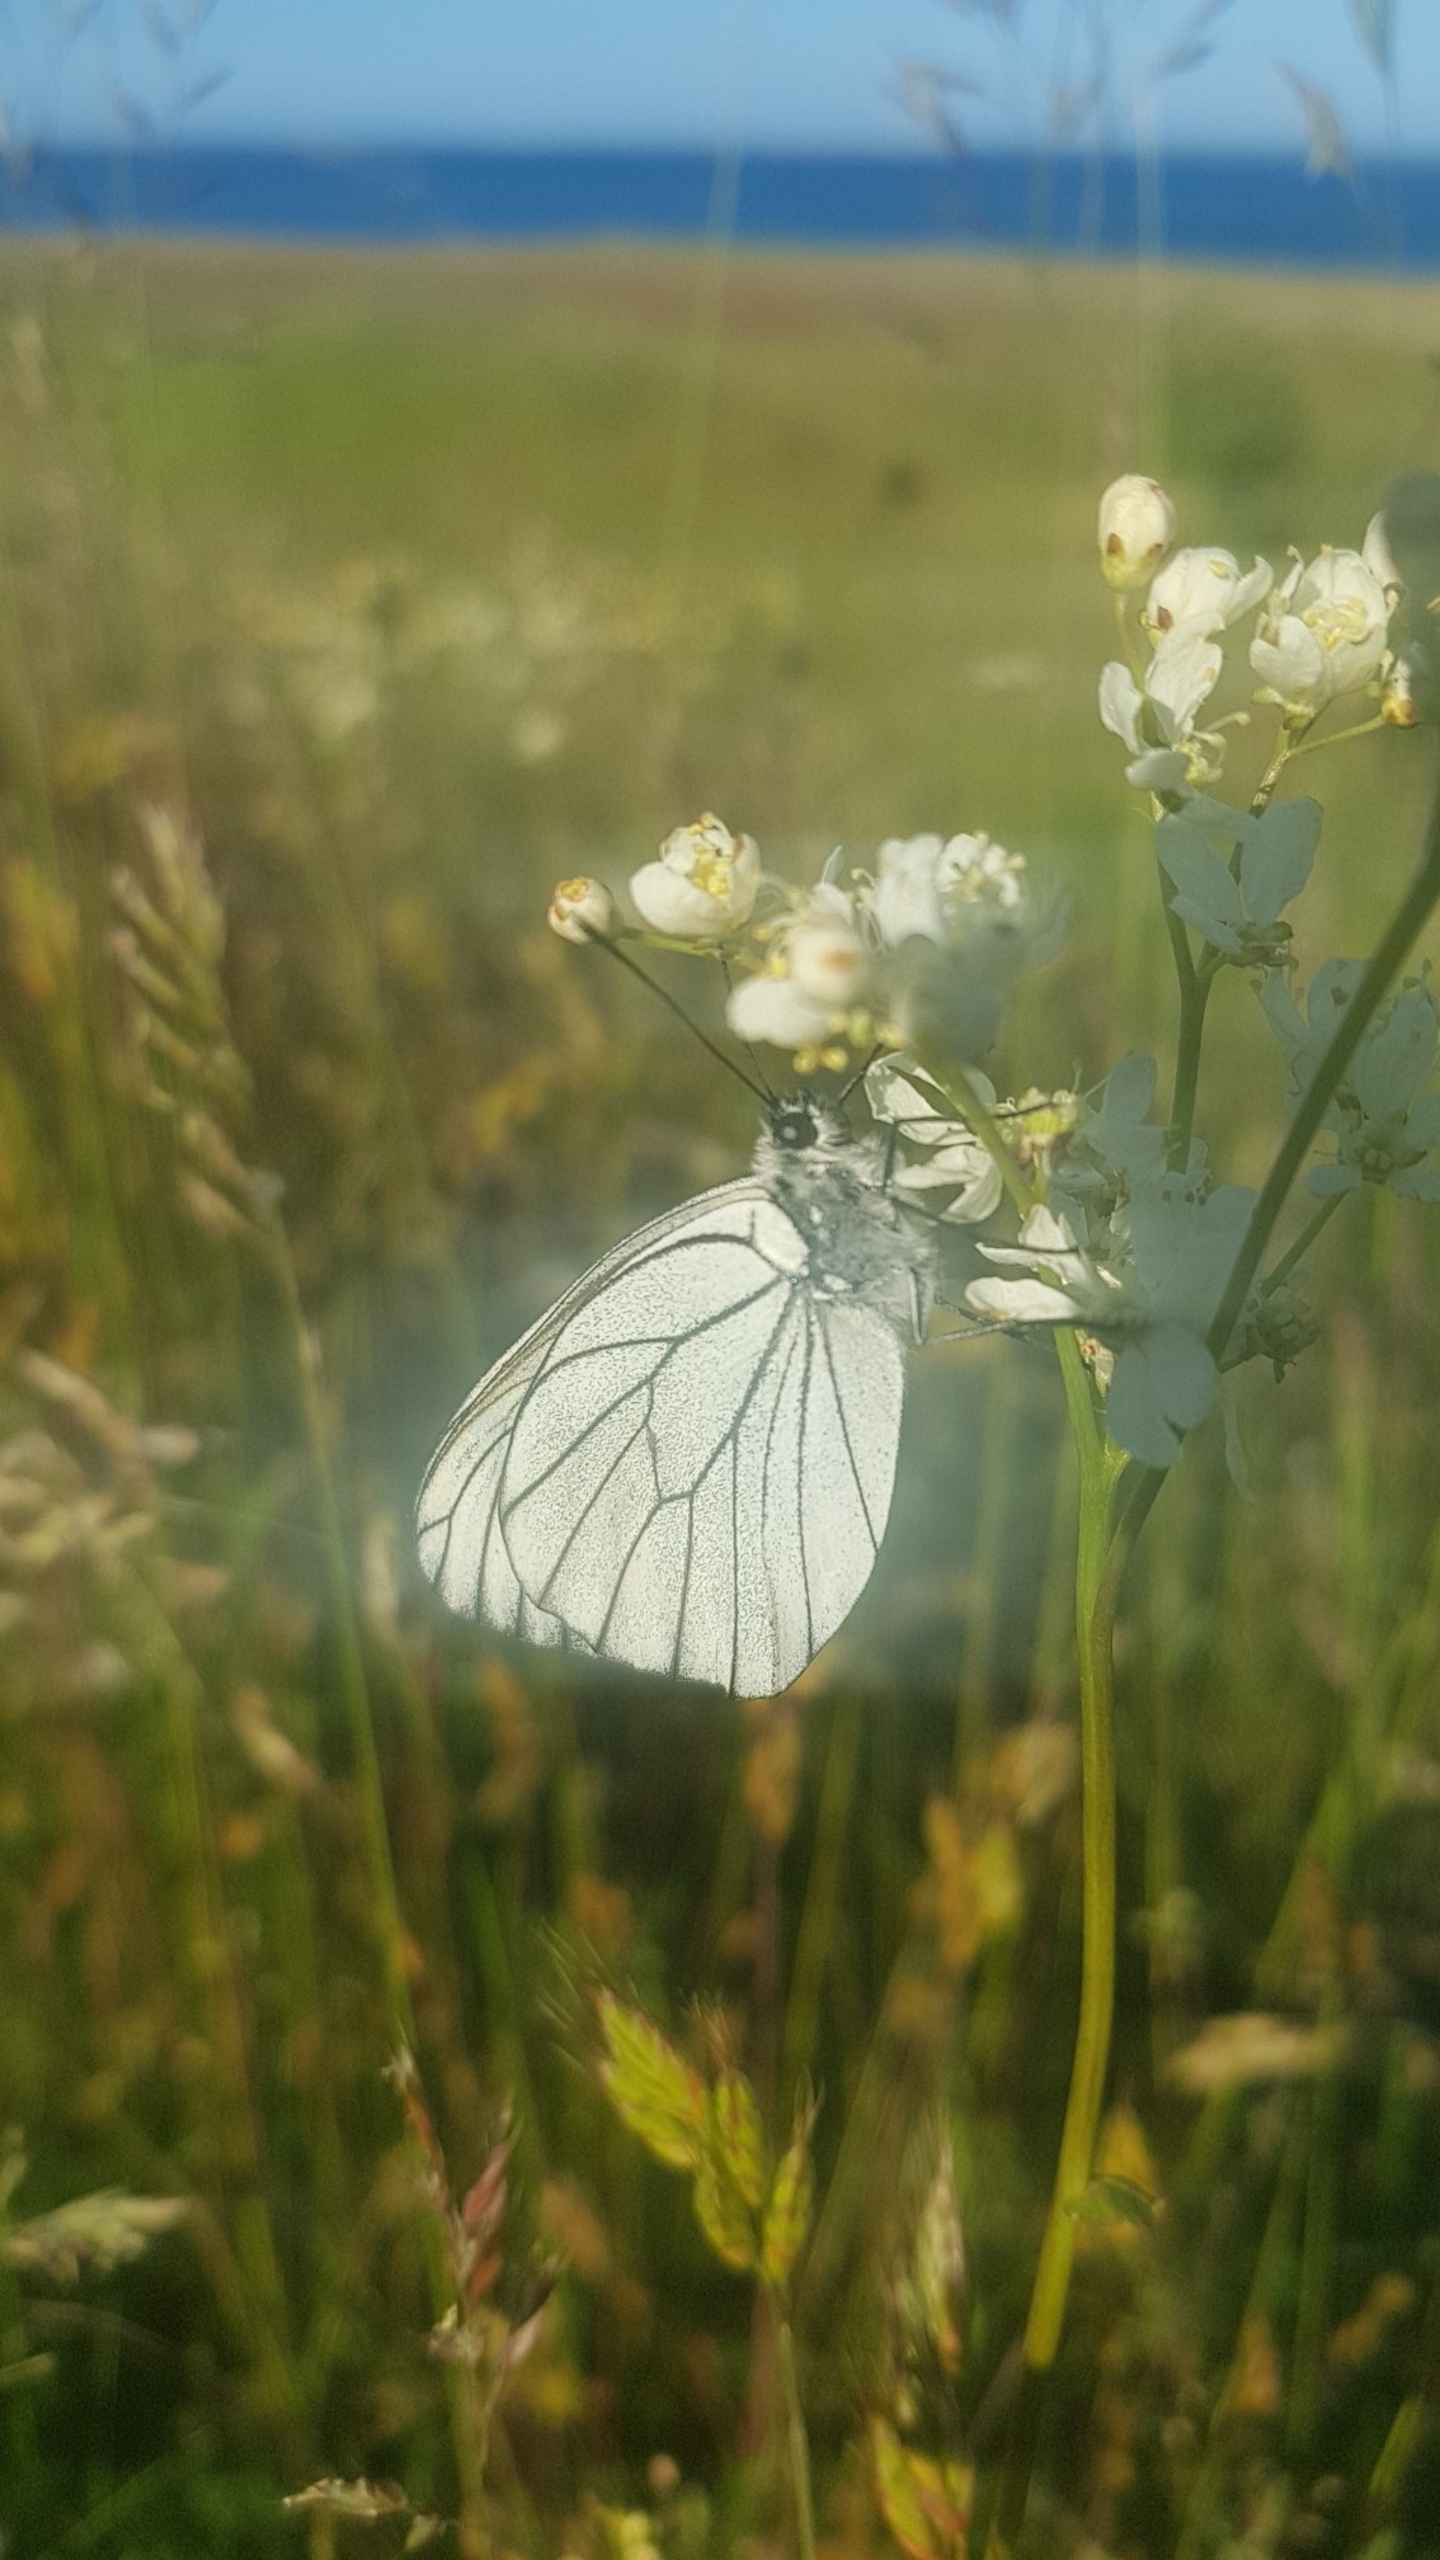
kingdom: Animalia
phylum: Arthropoda
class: Insecta
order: Lepidoptera
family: Pieridae
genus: Aporia
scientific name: Aporia crataegi
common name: Sortåret hvidvinge
